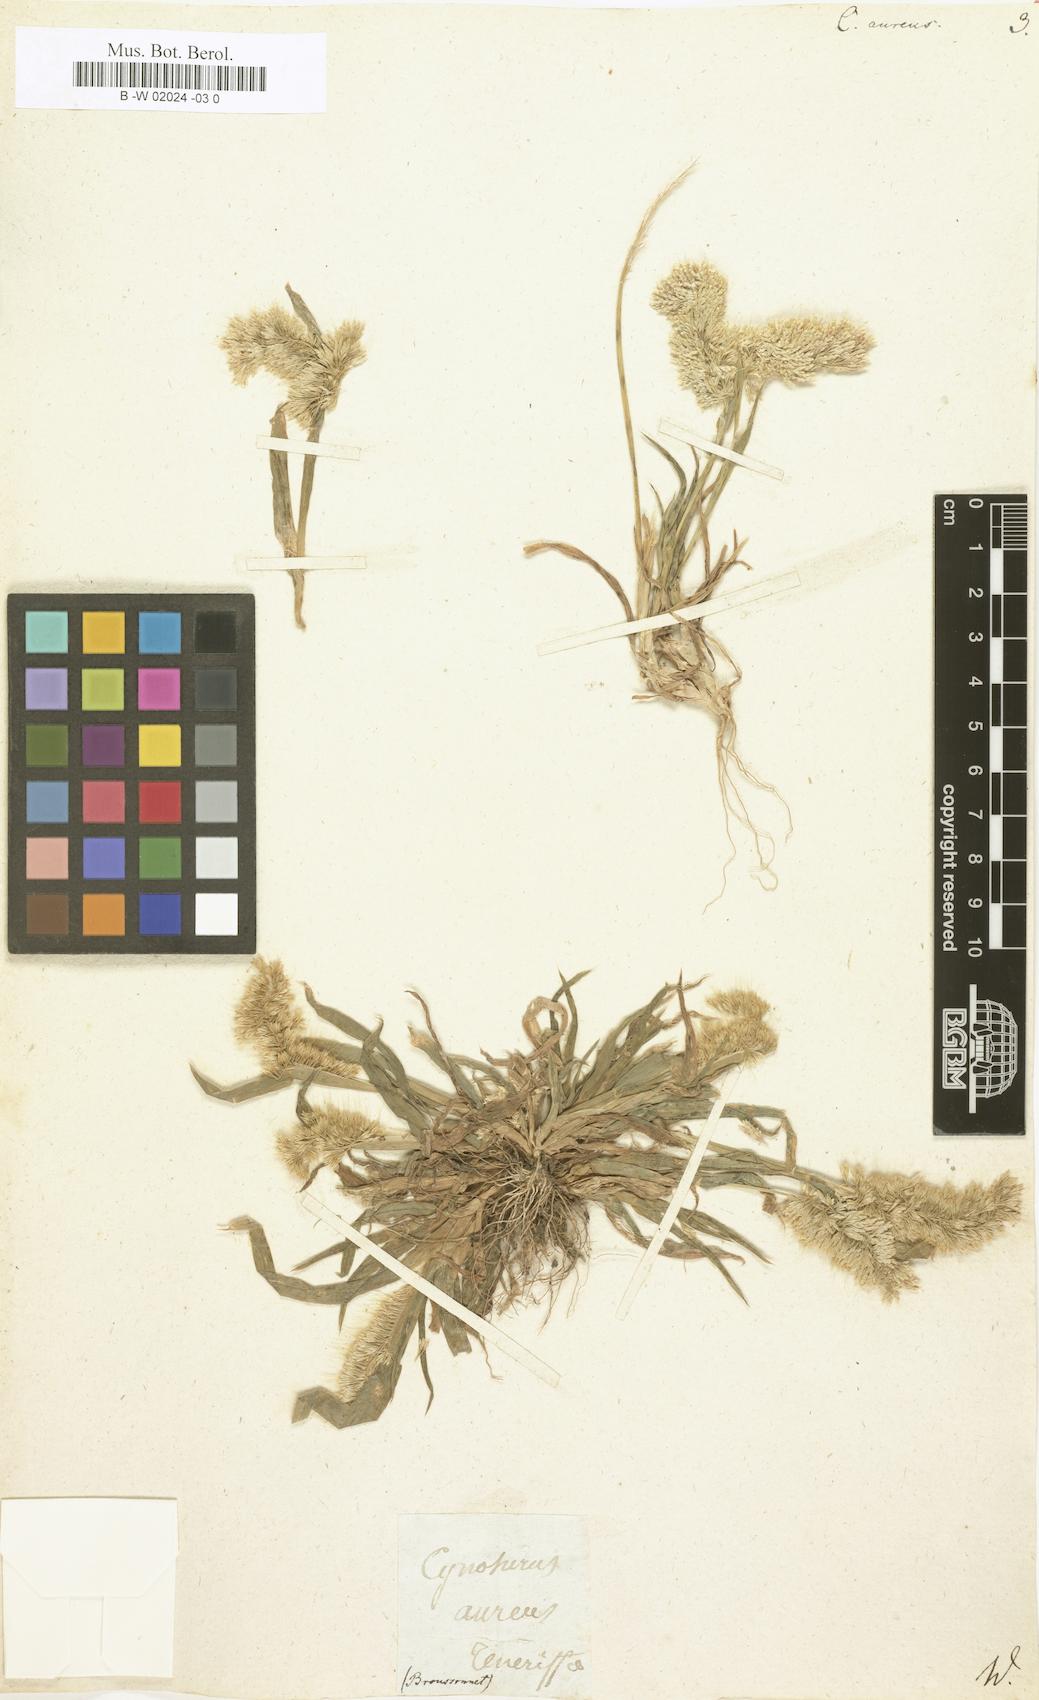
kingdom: Plantae
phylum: Tracheophyta
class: Liliopsida
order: Poales
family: Poaceae
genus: Lamarckia
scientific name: Lamarckia aurea
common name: Golden dog's-tail
